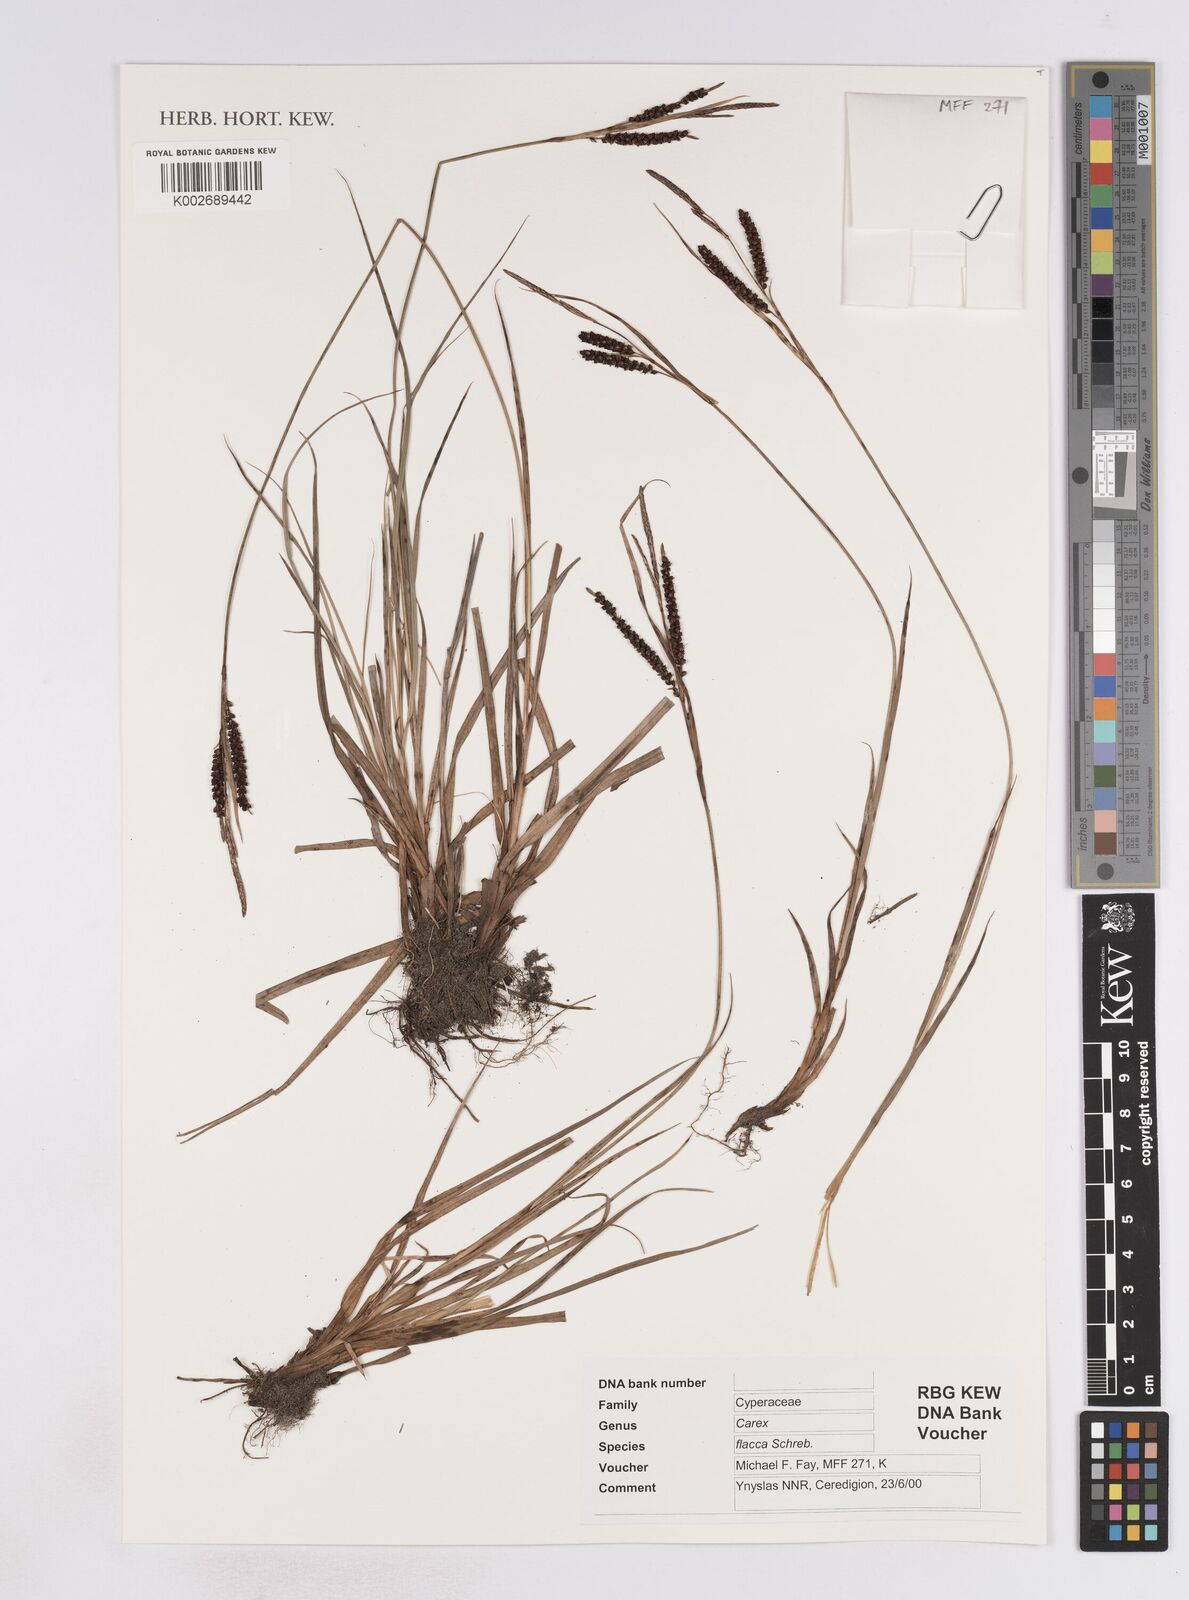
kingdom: Plantae
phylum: Tracheophyta
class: Liliopsida
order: Poales
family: Cyperaceae
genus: Carex
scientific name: Carex flacca
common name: Glaucous sedge
